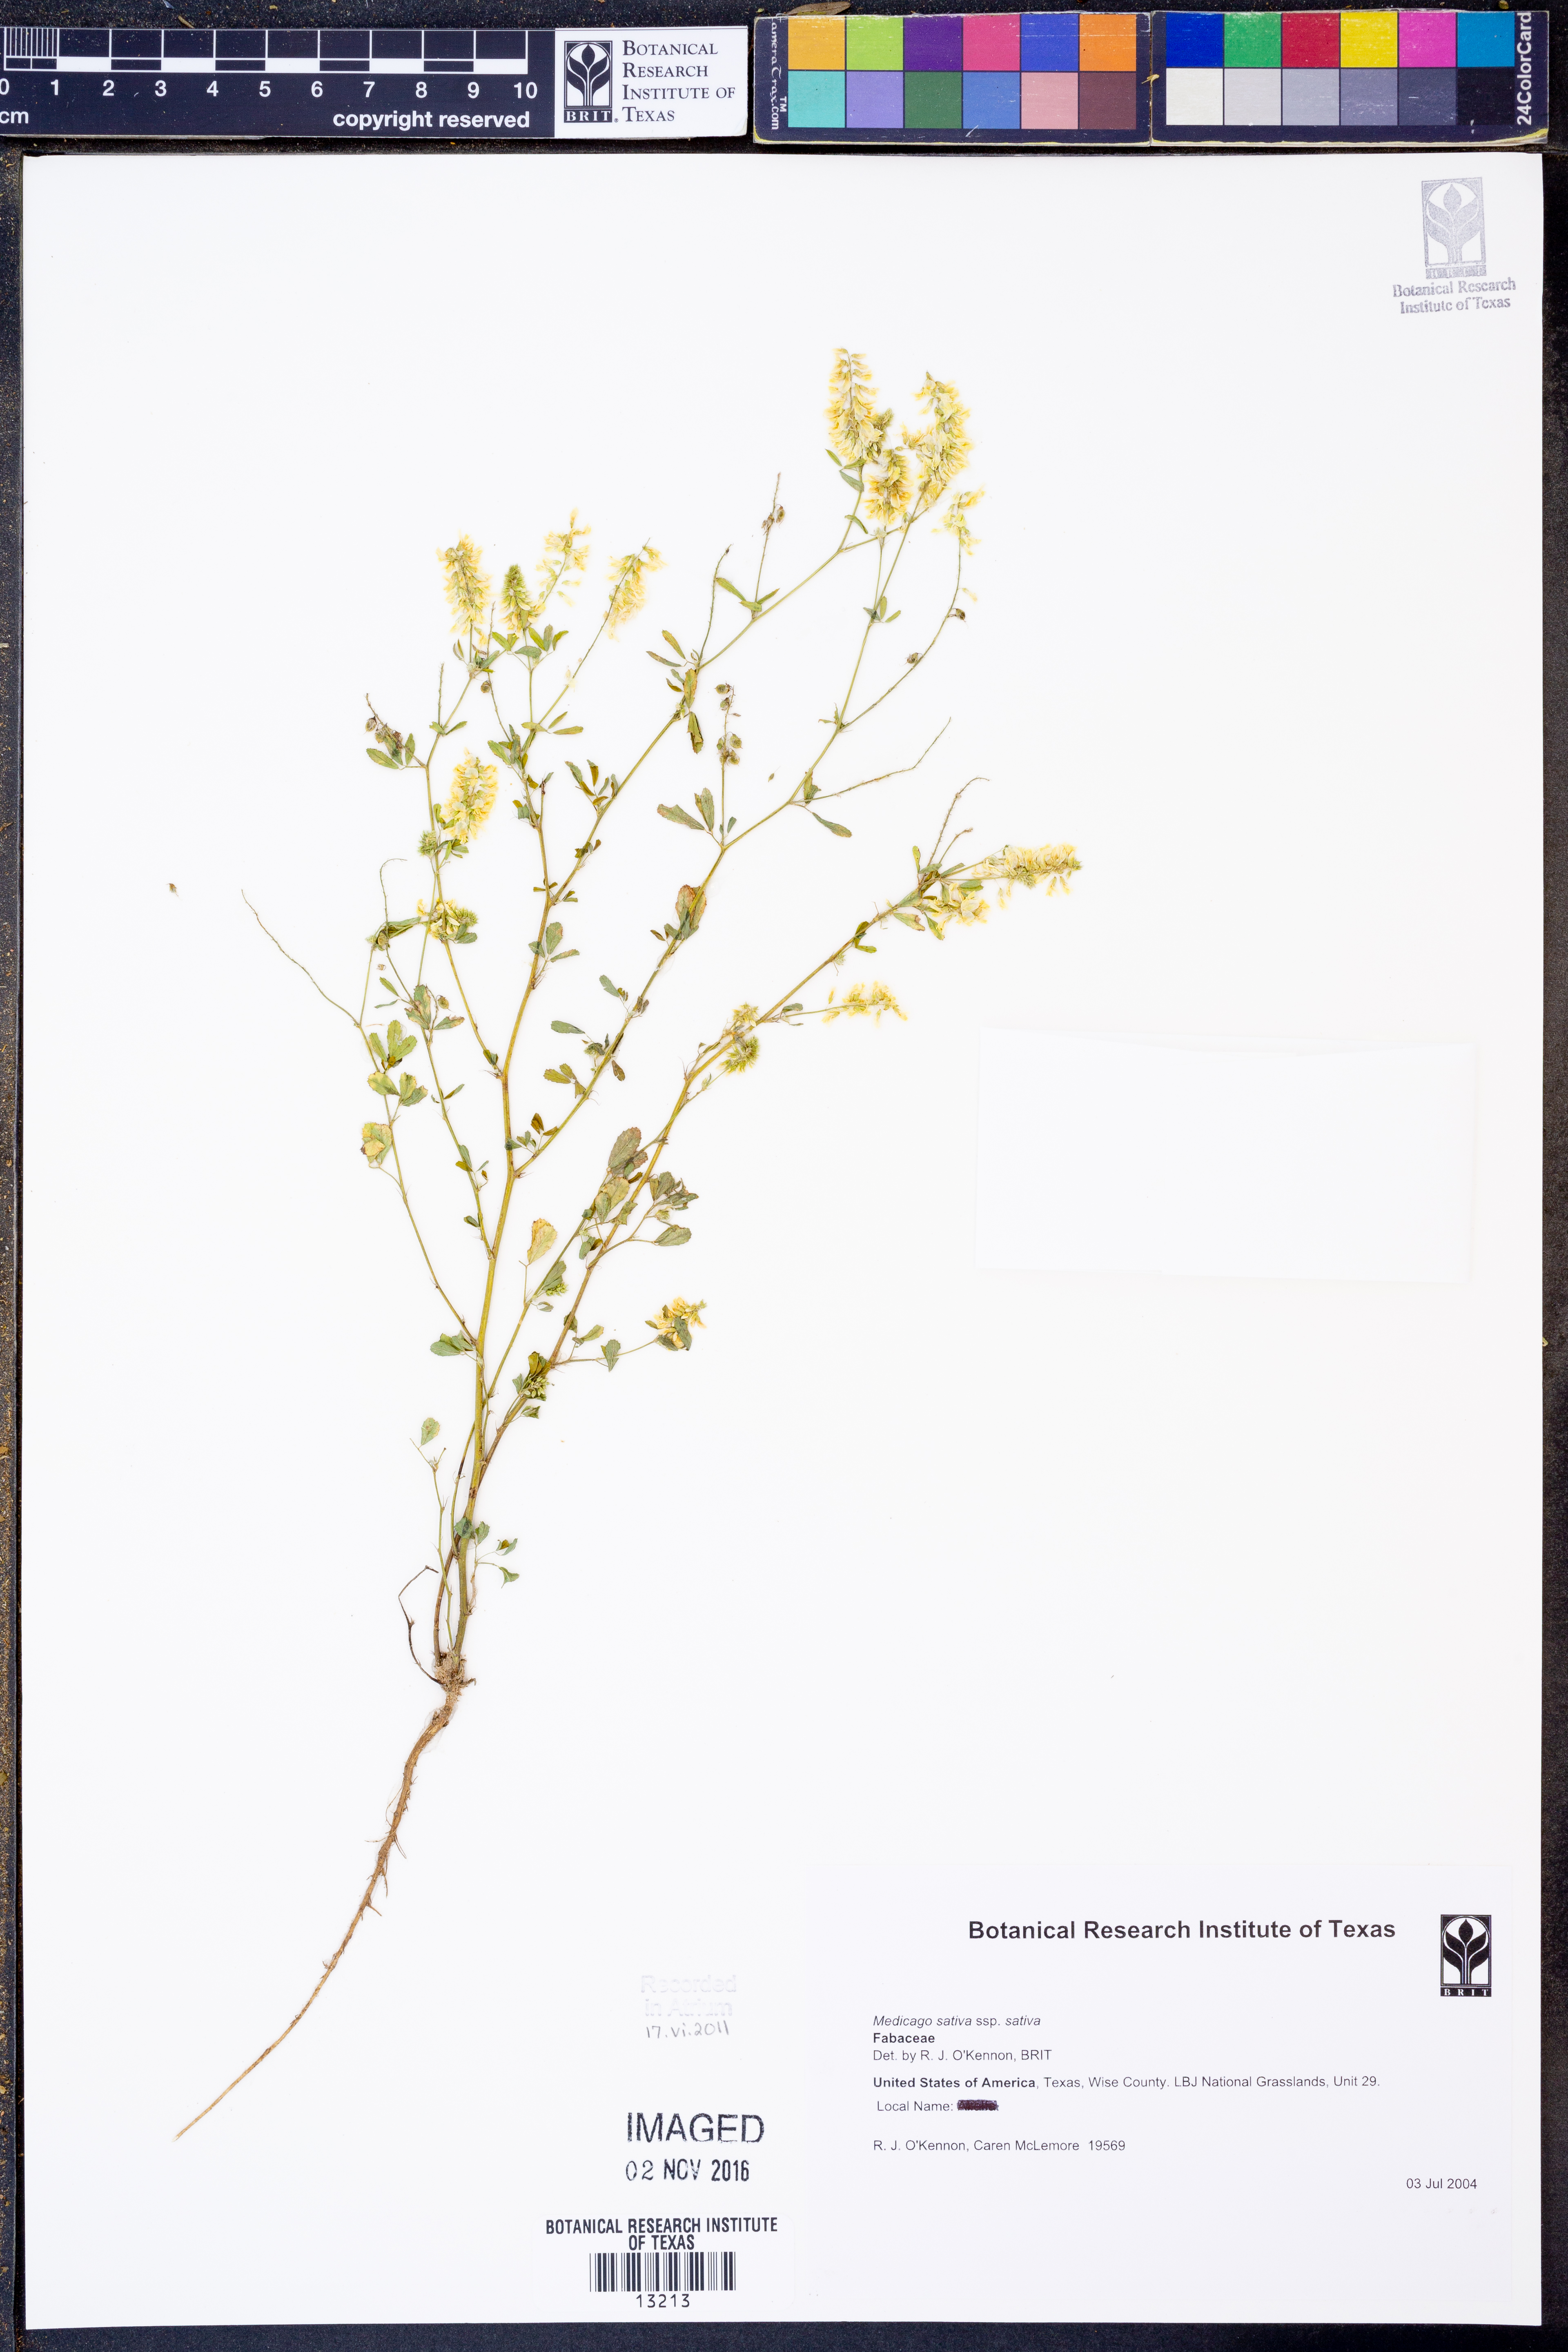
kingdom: Plantae
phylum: Tracheophyta
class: Magnoliopsida
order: Fabales
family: Fabaceae
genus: Medicago
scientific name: Medicago sativa
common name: Alfalfa
